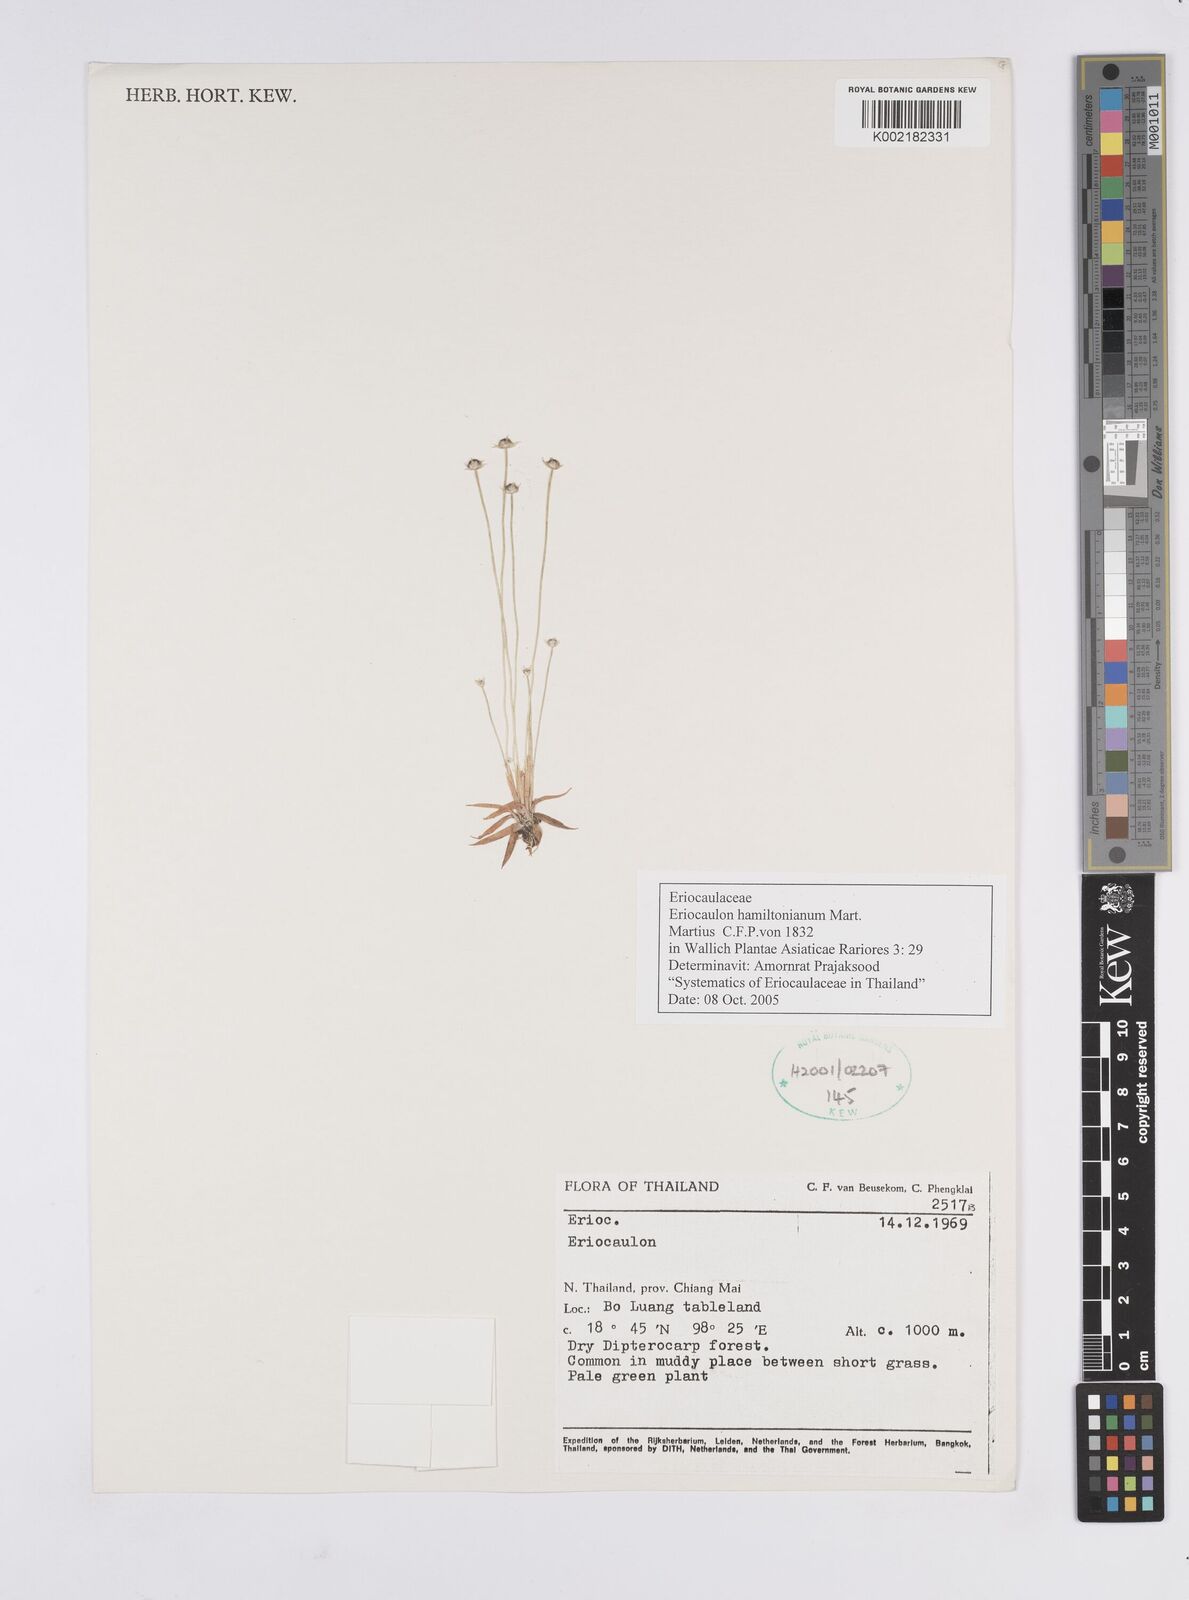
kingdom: Plantae
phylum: Tracheophyta
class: Liliopsida
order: Poales
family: Eriocaulaceae
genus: Eriocaulon
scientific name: Eriocaulon hamiltonianum
